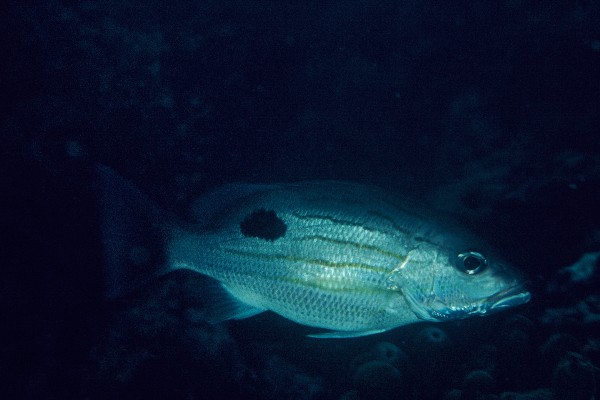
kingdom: Animalia
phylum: Chordata
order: Perciformes
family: Lutjanidae
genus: Lutjanus
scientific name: Lutjanus russellii
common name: Russell's snapper
